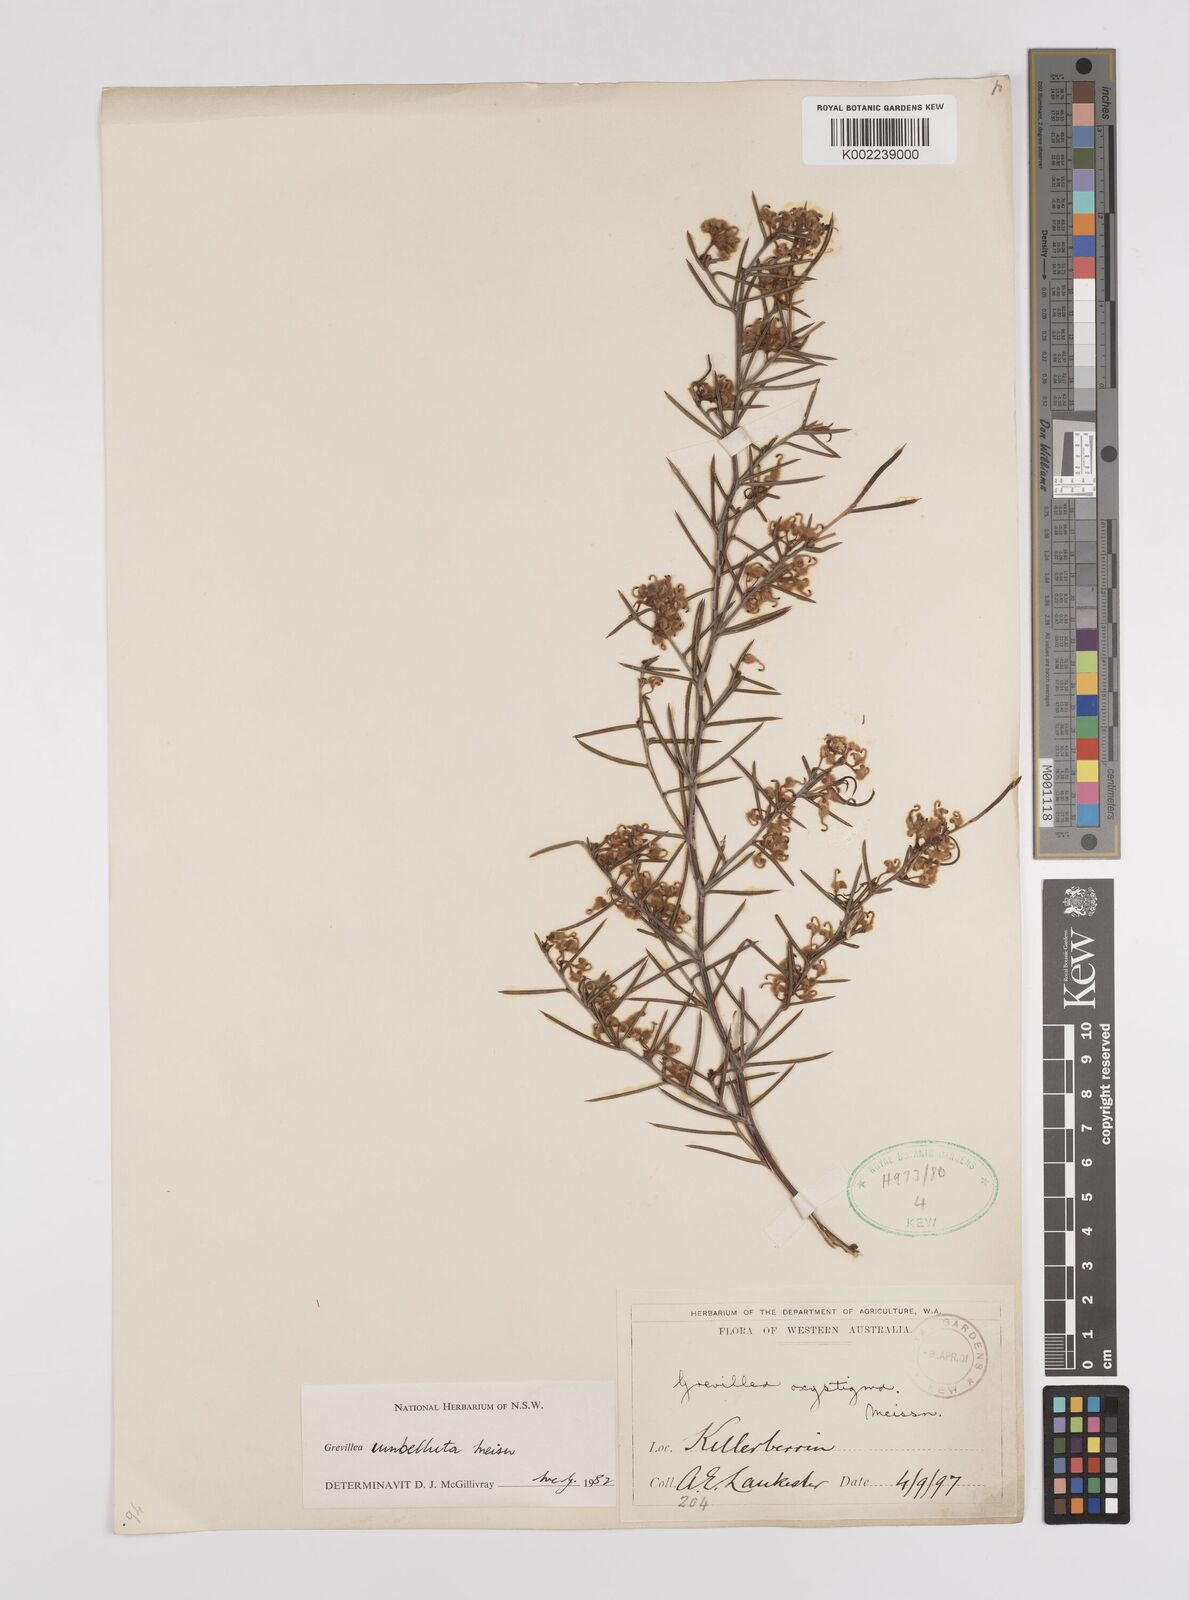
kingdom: Plantae
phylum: Tracheophyta
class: Magnoliopsida
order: Proteales
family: Proteaceae
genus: Grevillea
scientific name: Grevillea umbellulata
